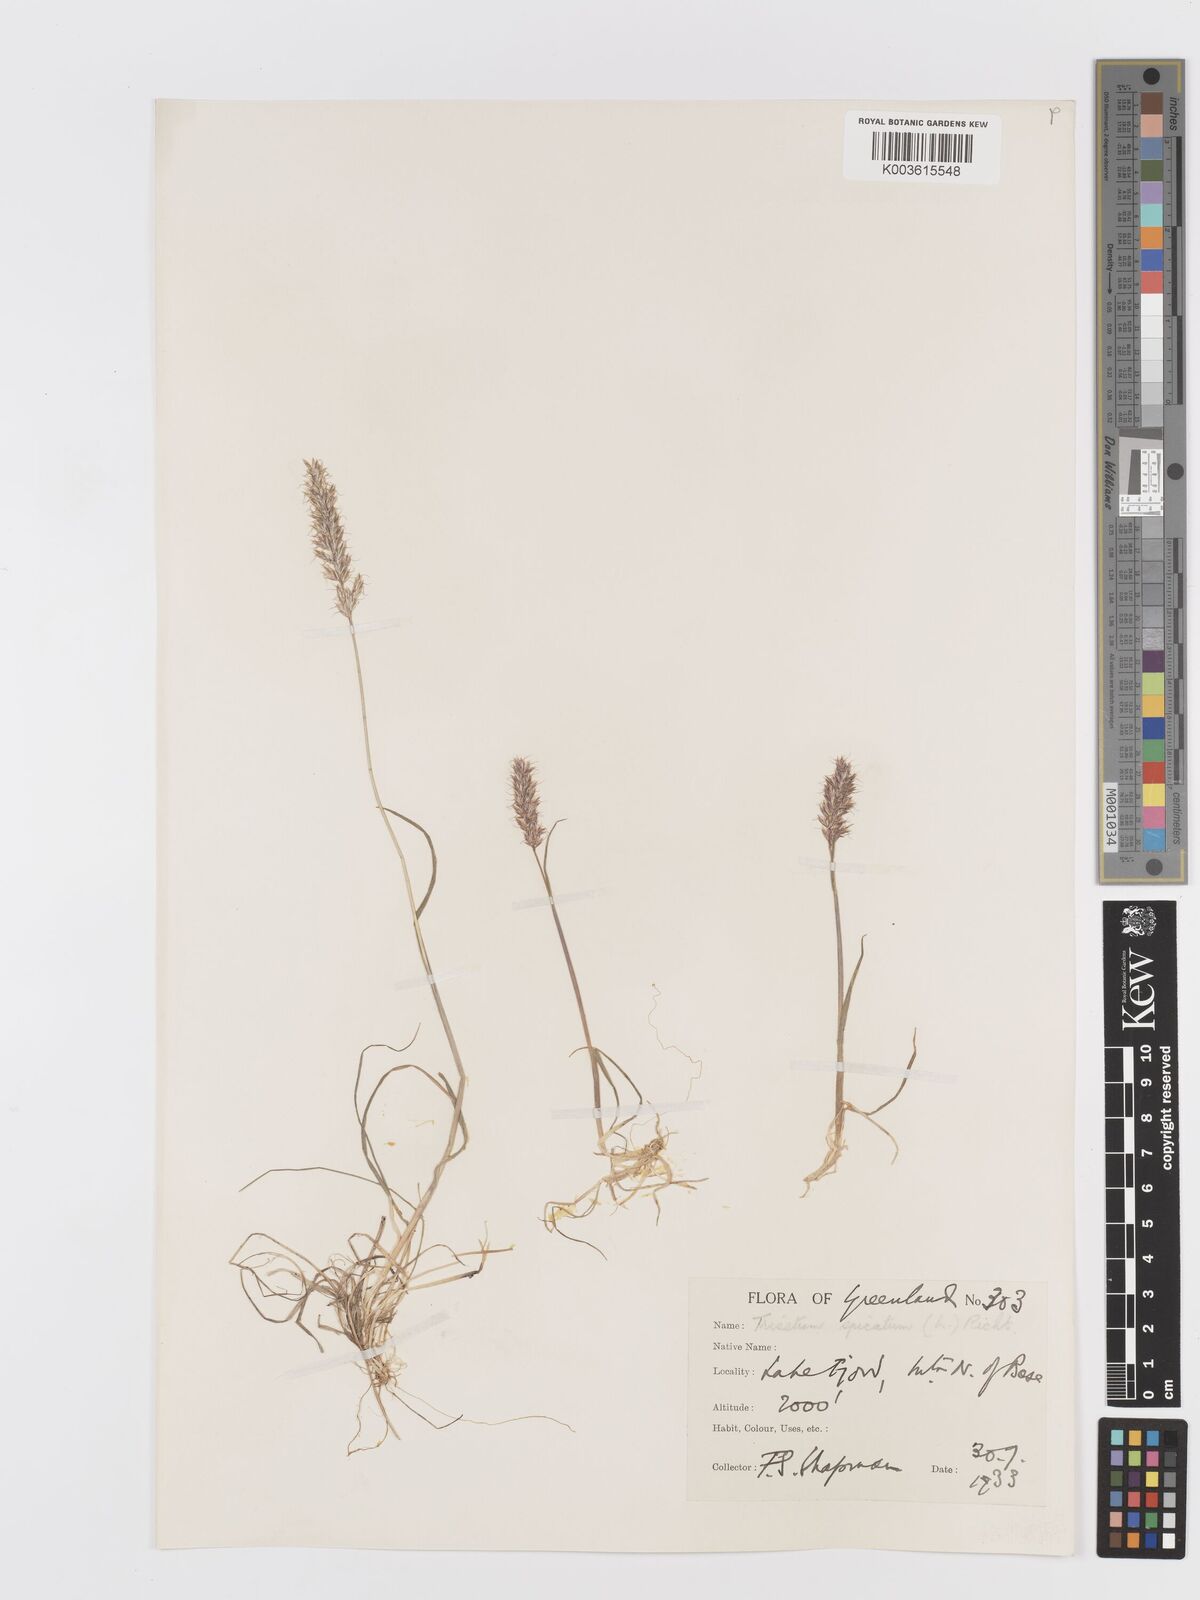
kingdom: Plantae
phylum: Tracheophyta
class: Liliopsida
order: Poales
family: Poaceae
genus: Koeleria
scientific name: Koeleria spicata
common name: Mountain trisetum
